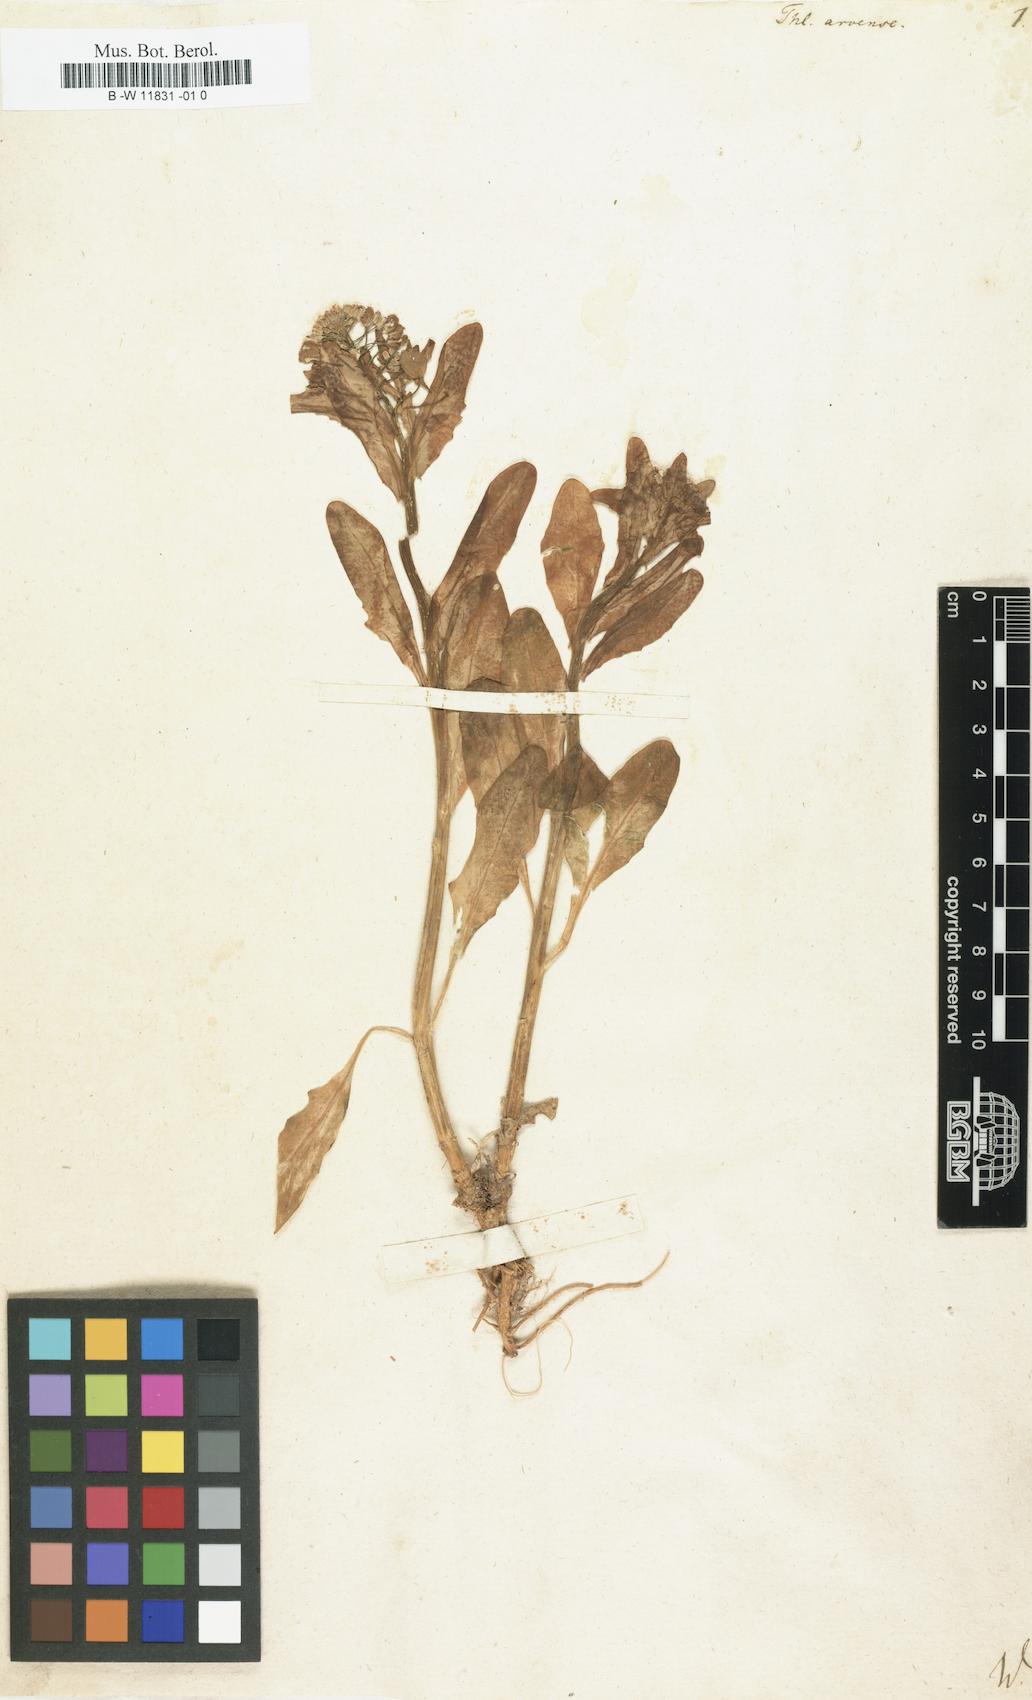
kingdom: Plantae
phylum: Tracheophyta
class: Magnoliopsida
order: Brassicales
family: Brassicaceae
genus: Thlaspi
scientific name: Thlaspi arvense
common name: Field pennycress
